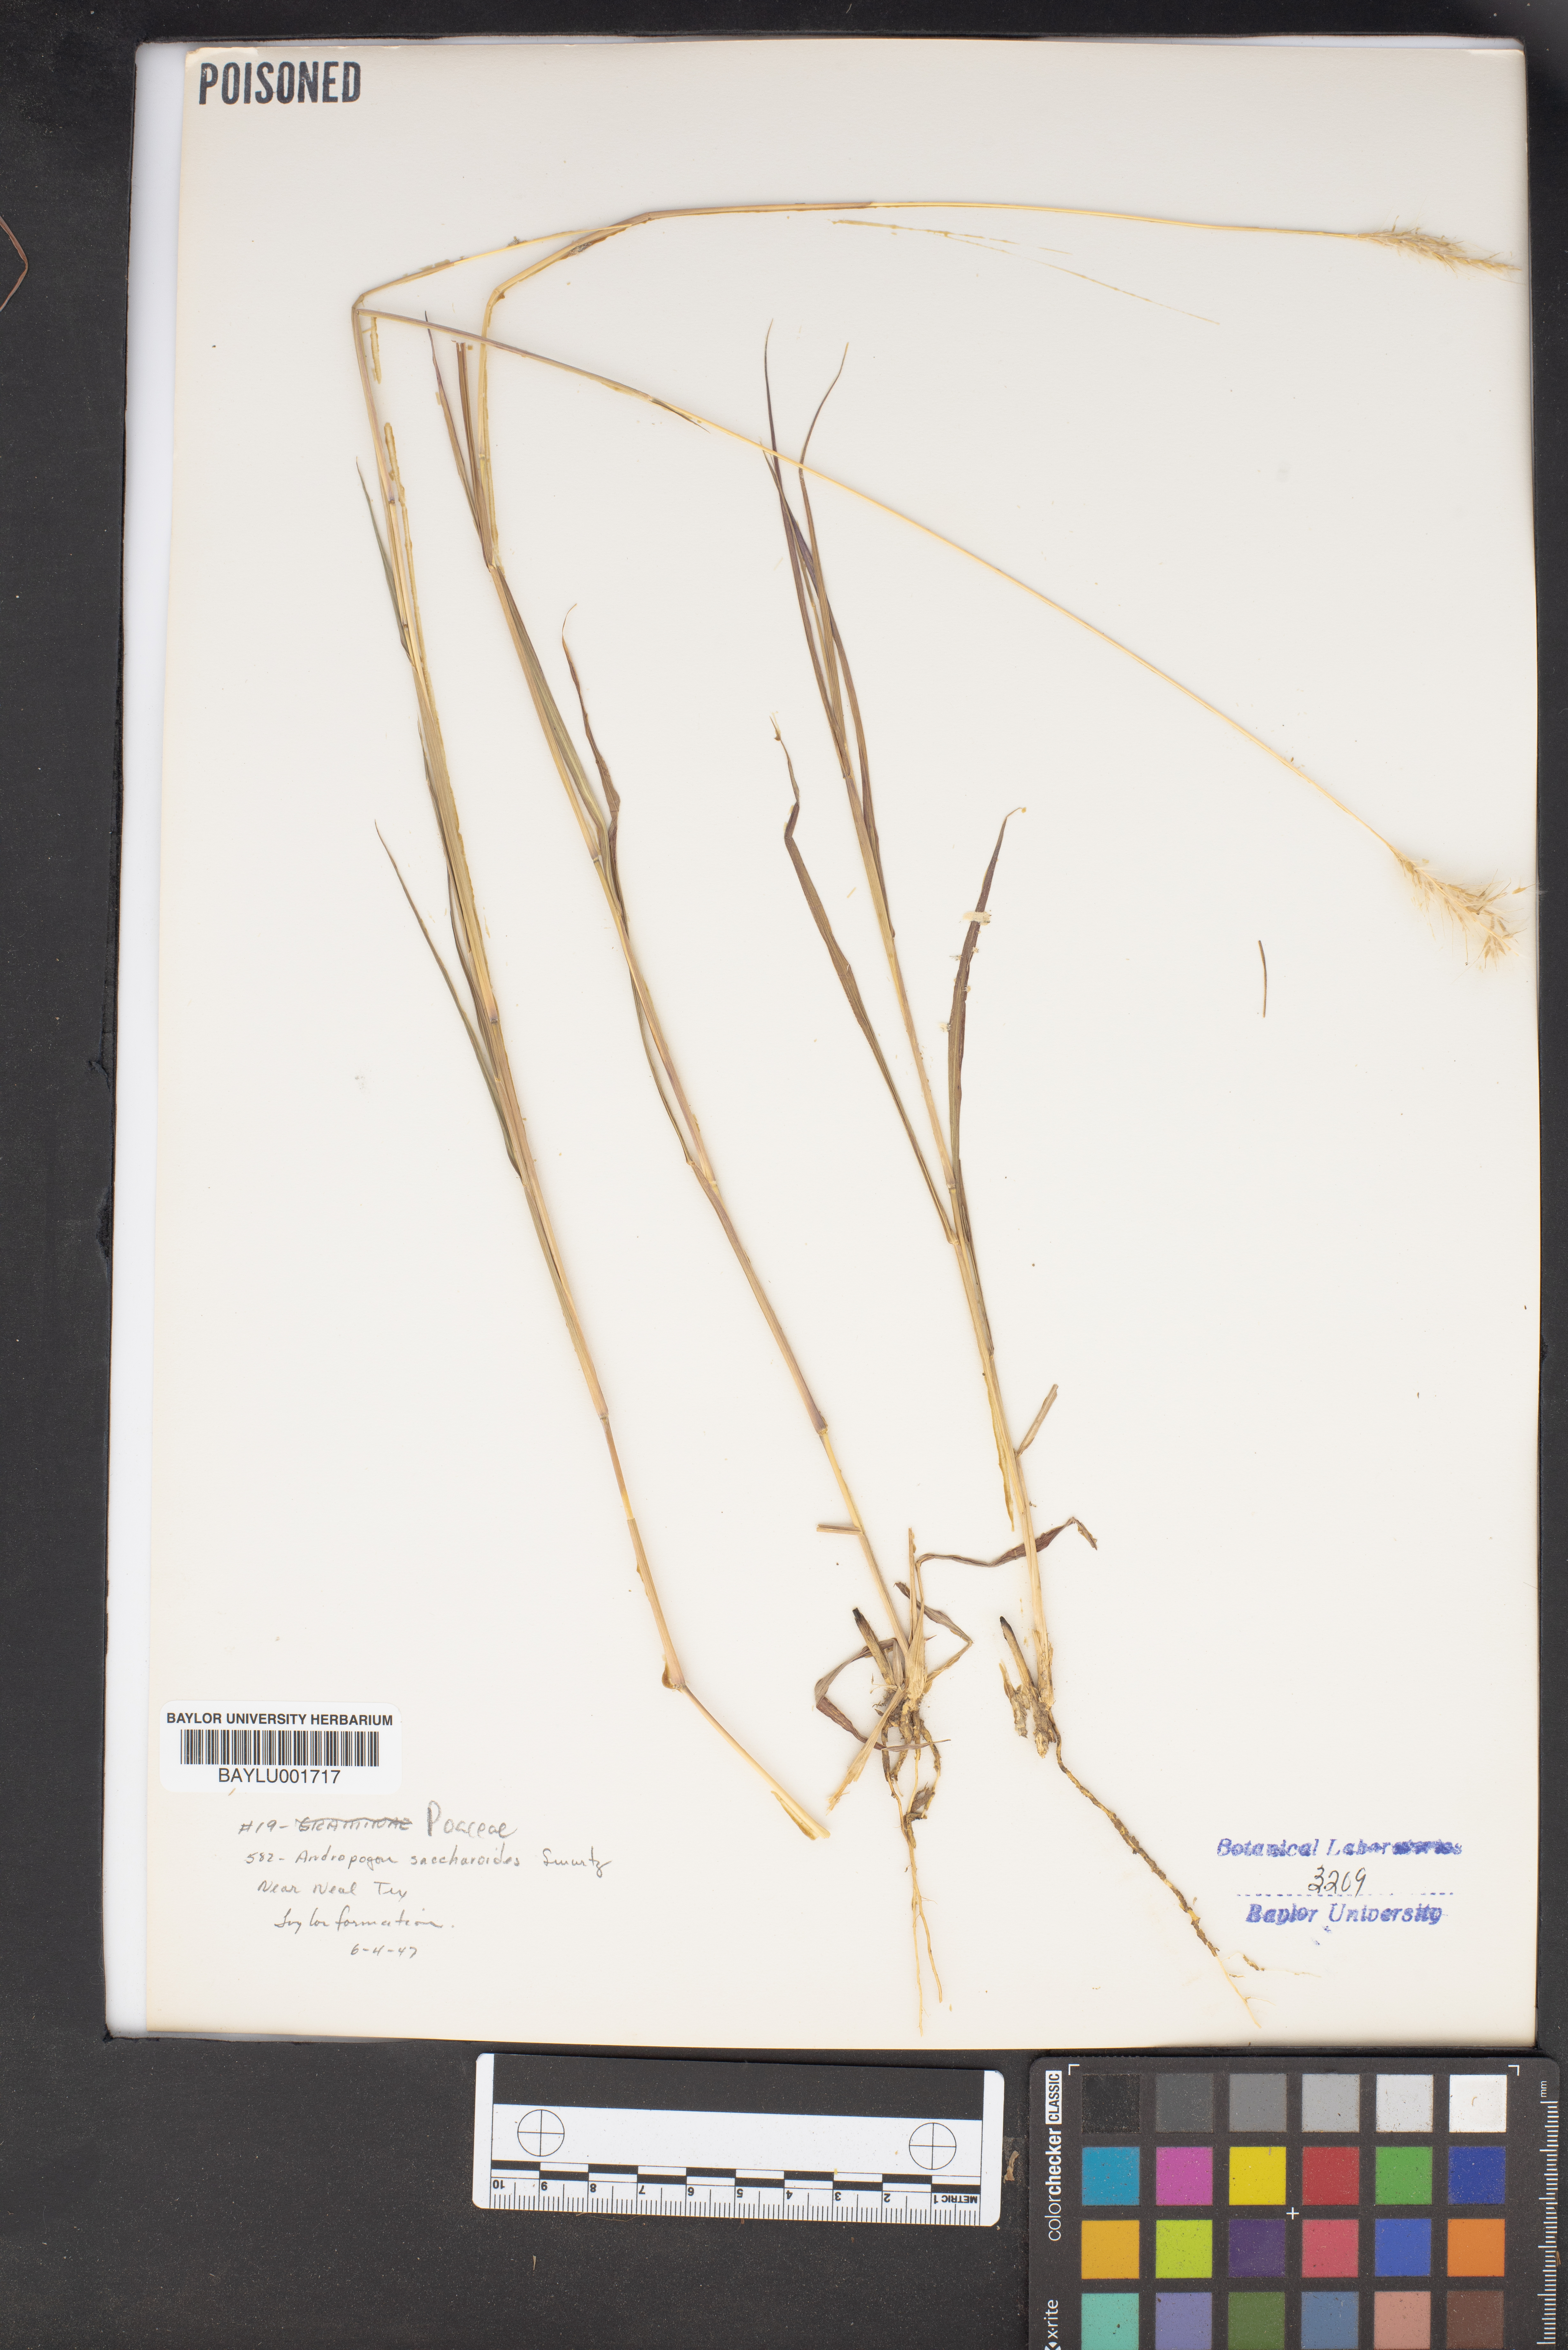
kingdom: Plantae
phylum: Tracheophyta
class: Liliopsida
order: Poales
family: Poaceae
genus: Bothriochloa
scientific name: Bothriochloa saccharoides
